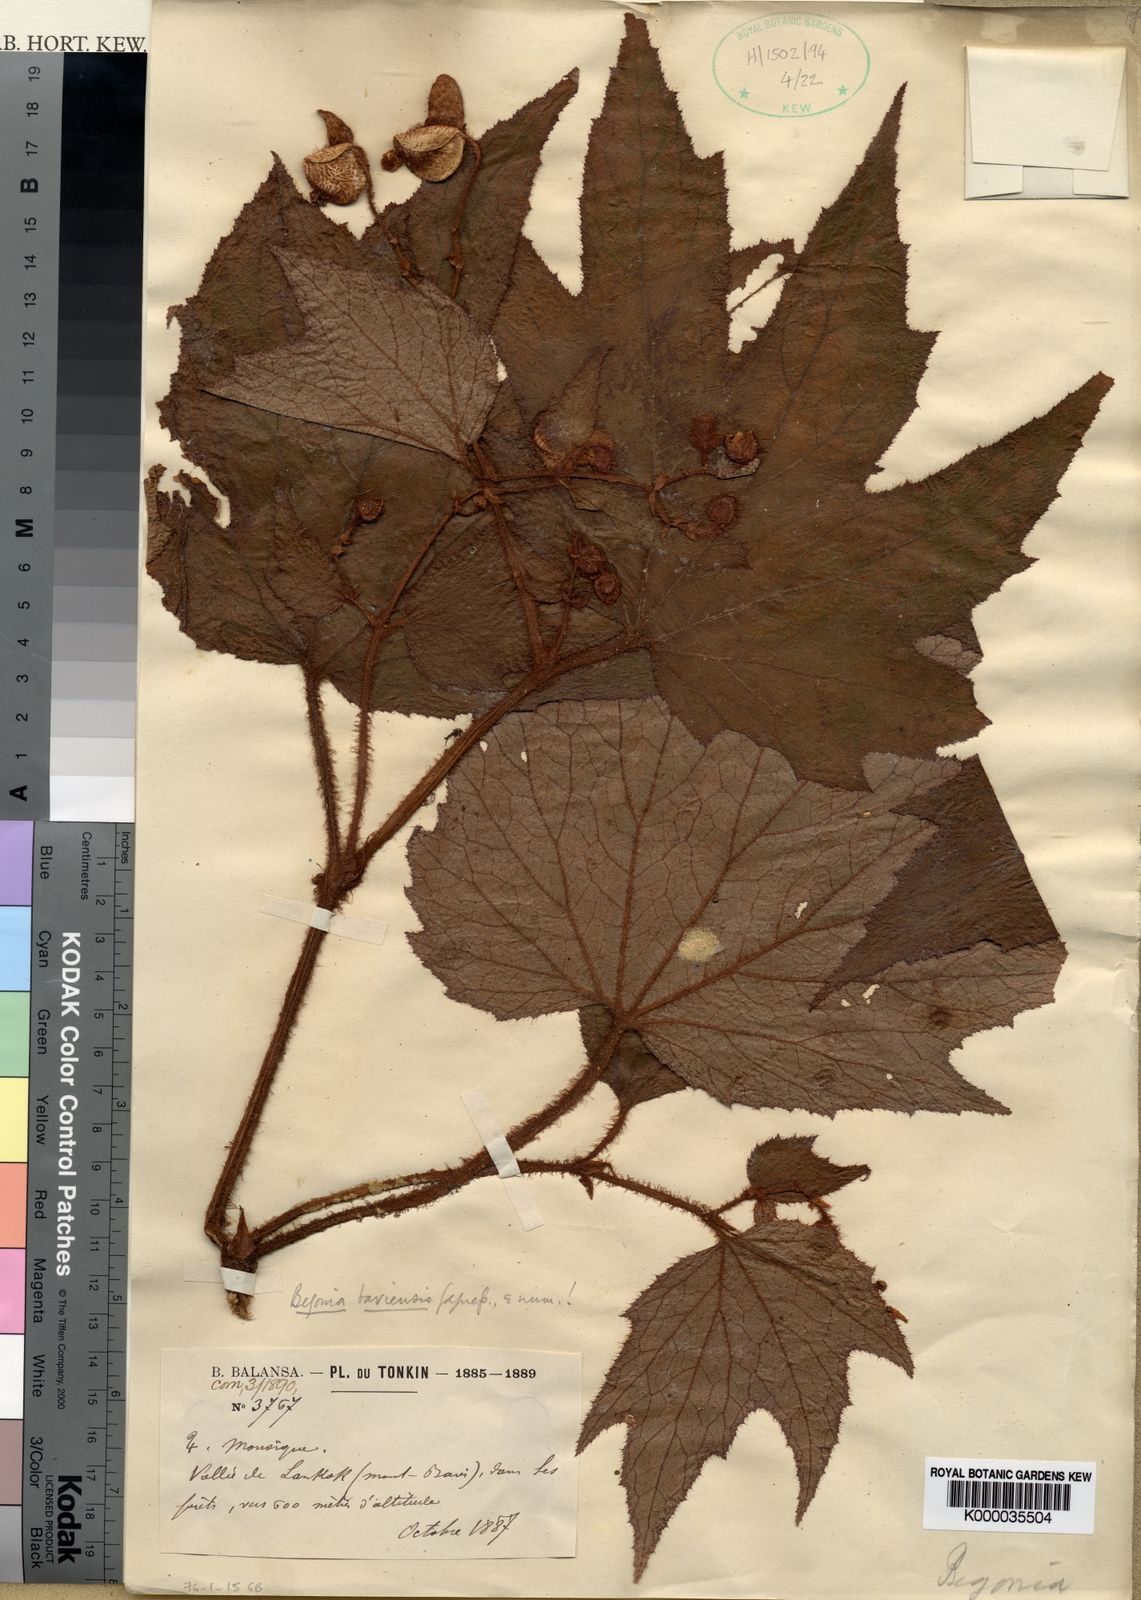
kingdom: Plantae
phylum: Tracheophyta
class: Magnoliopsida
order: Cucurbitales
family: Begoniaceae
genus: Begonia
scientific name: Begonia baviensis
